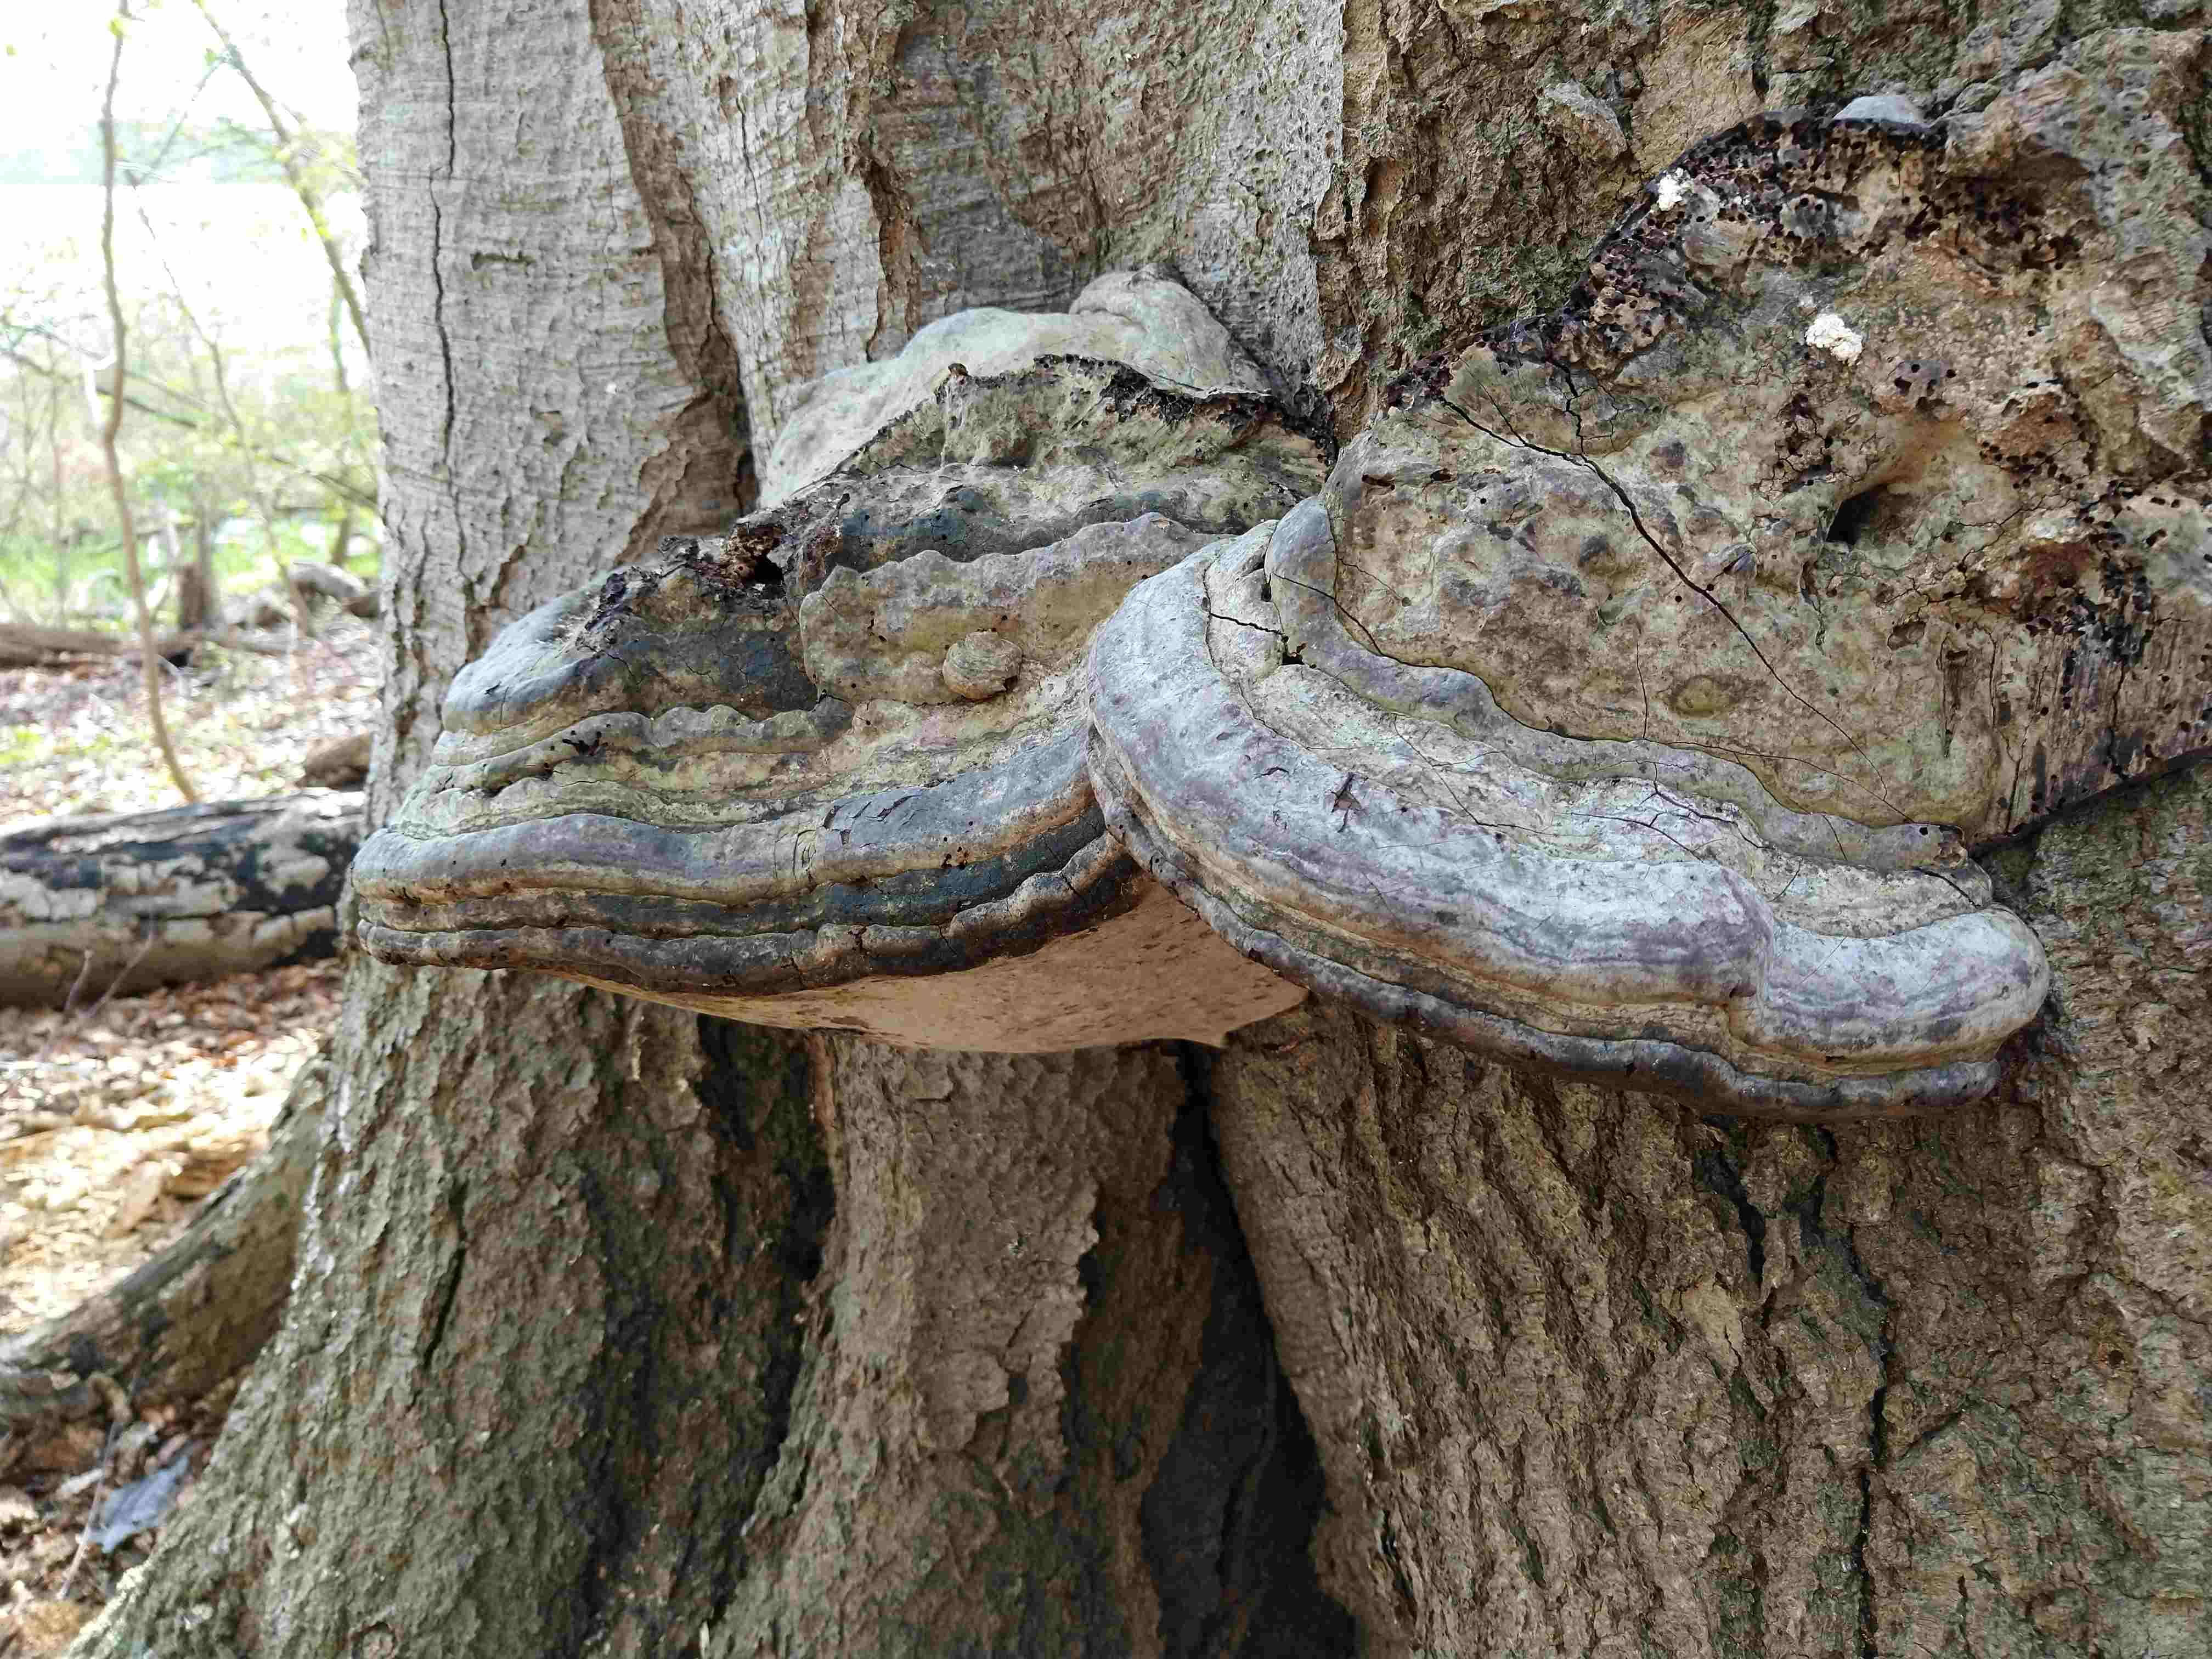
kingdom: Fungi
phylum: Basidiomycota
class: Agaricomycetes
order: Polyporales
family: Polyporaceae
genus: Fomes
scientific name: Fomes fomentarius
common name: tøndersvamp
